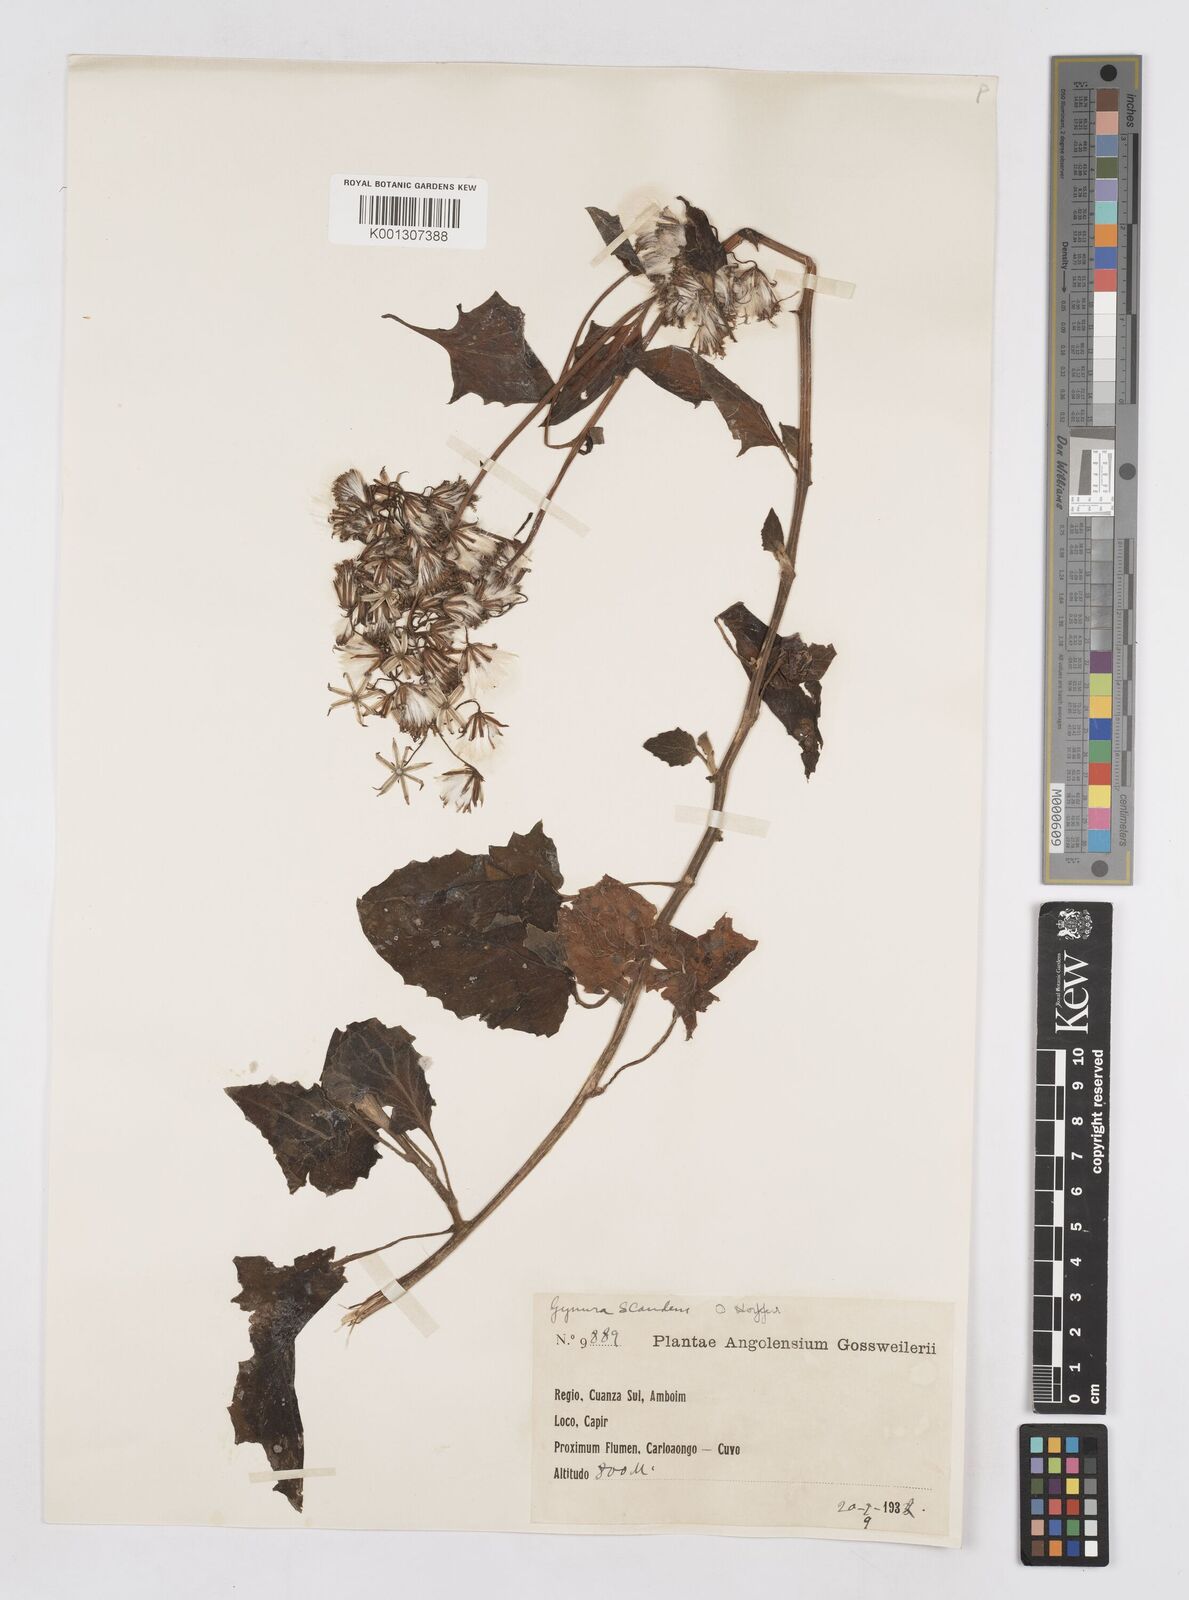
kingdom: Plantae
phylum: Tracheophyta
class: Magnoliopsida
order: Asterales
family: Asteraceae
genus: Gynura
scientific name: Gynura scandens
